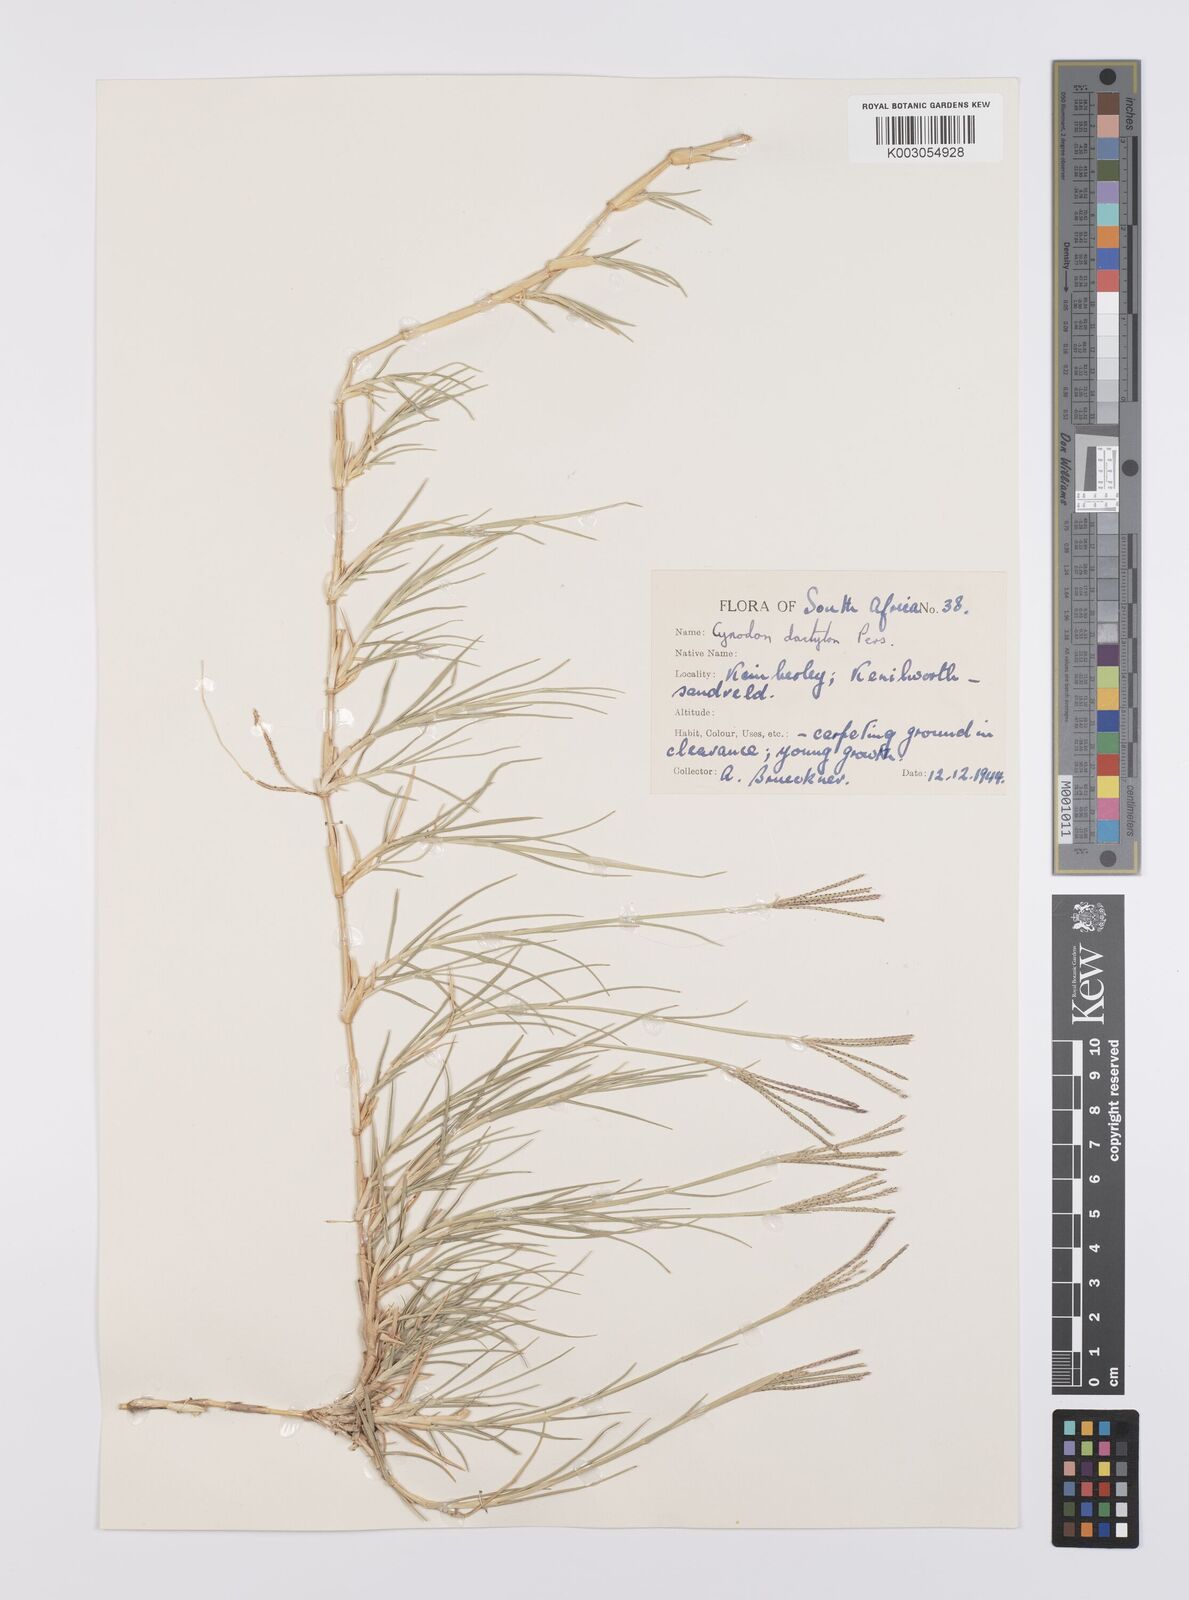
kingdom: Plantae
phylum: Tracheophyta
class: Liliopsida
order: Poales
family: Poaceae
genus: Cynodon
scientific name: Cynodon dactylon
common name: Bermuda grass
